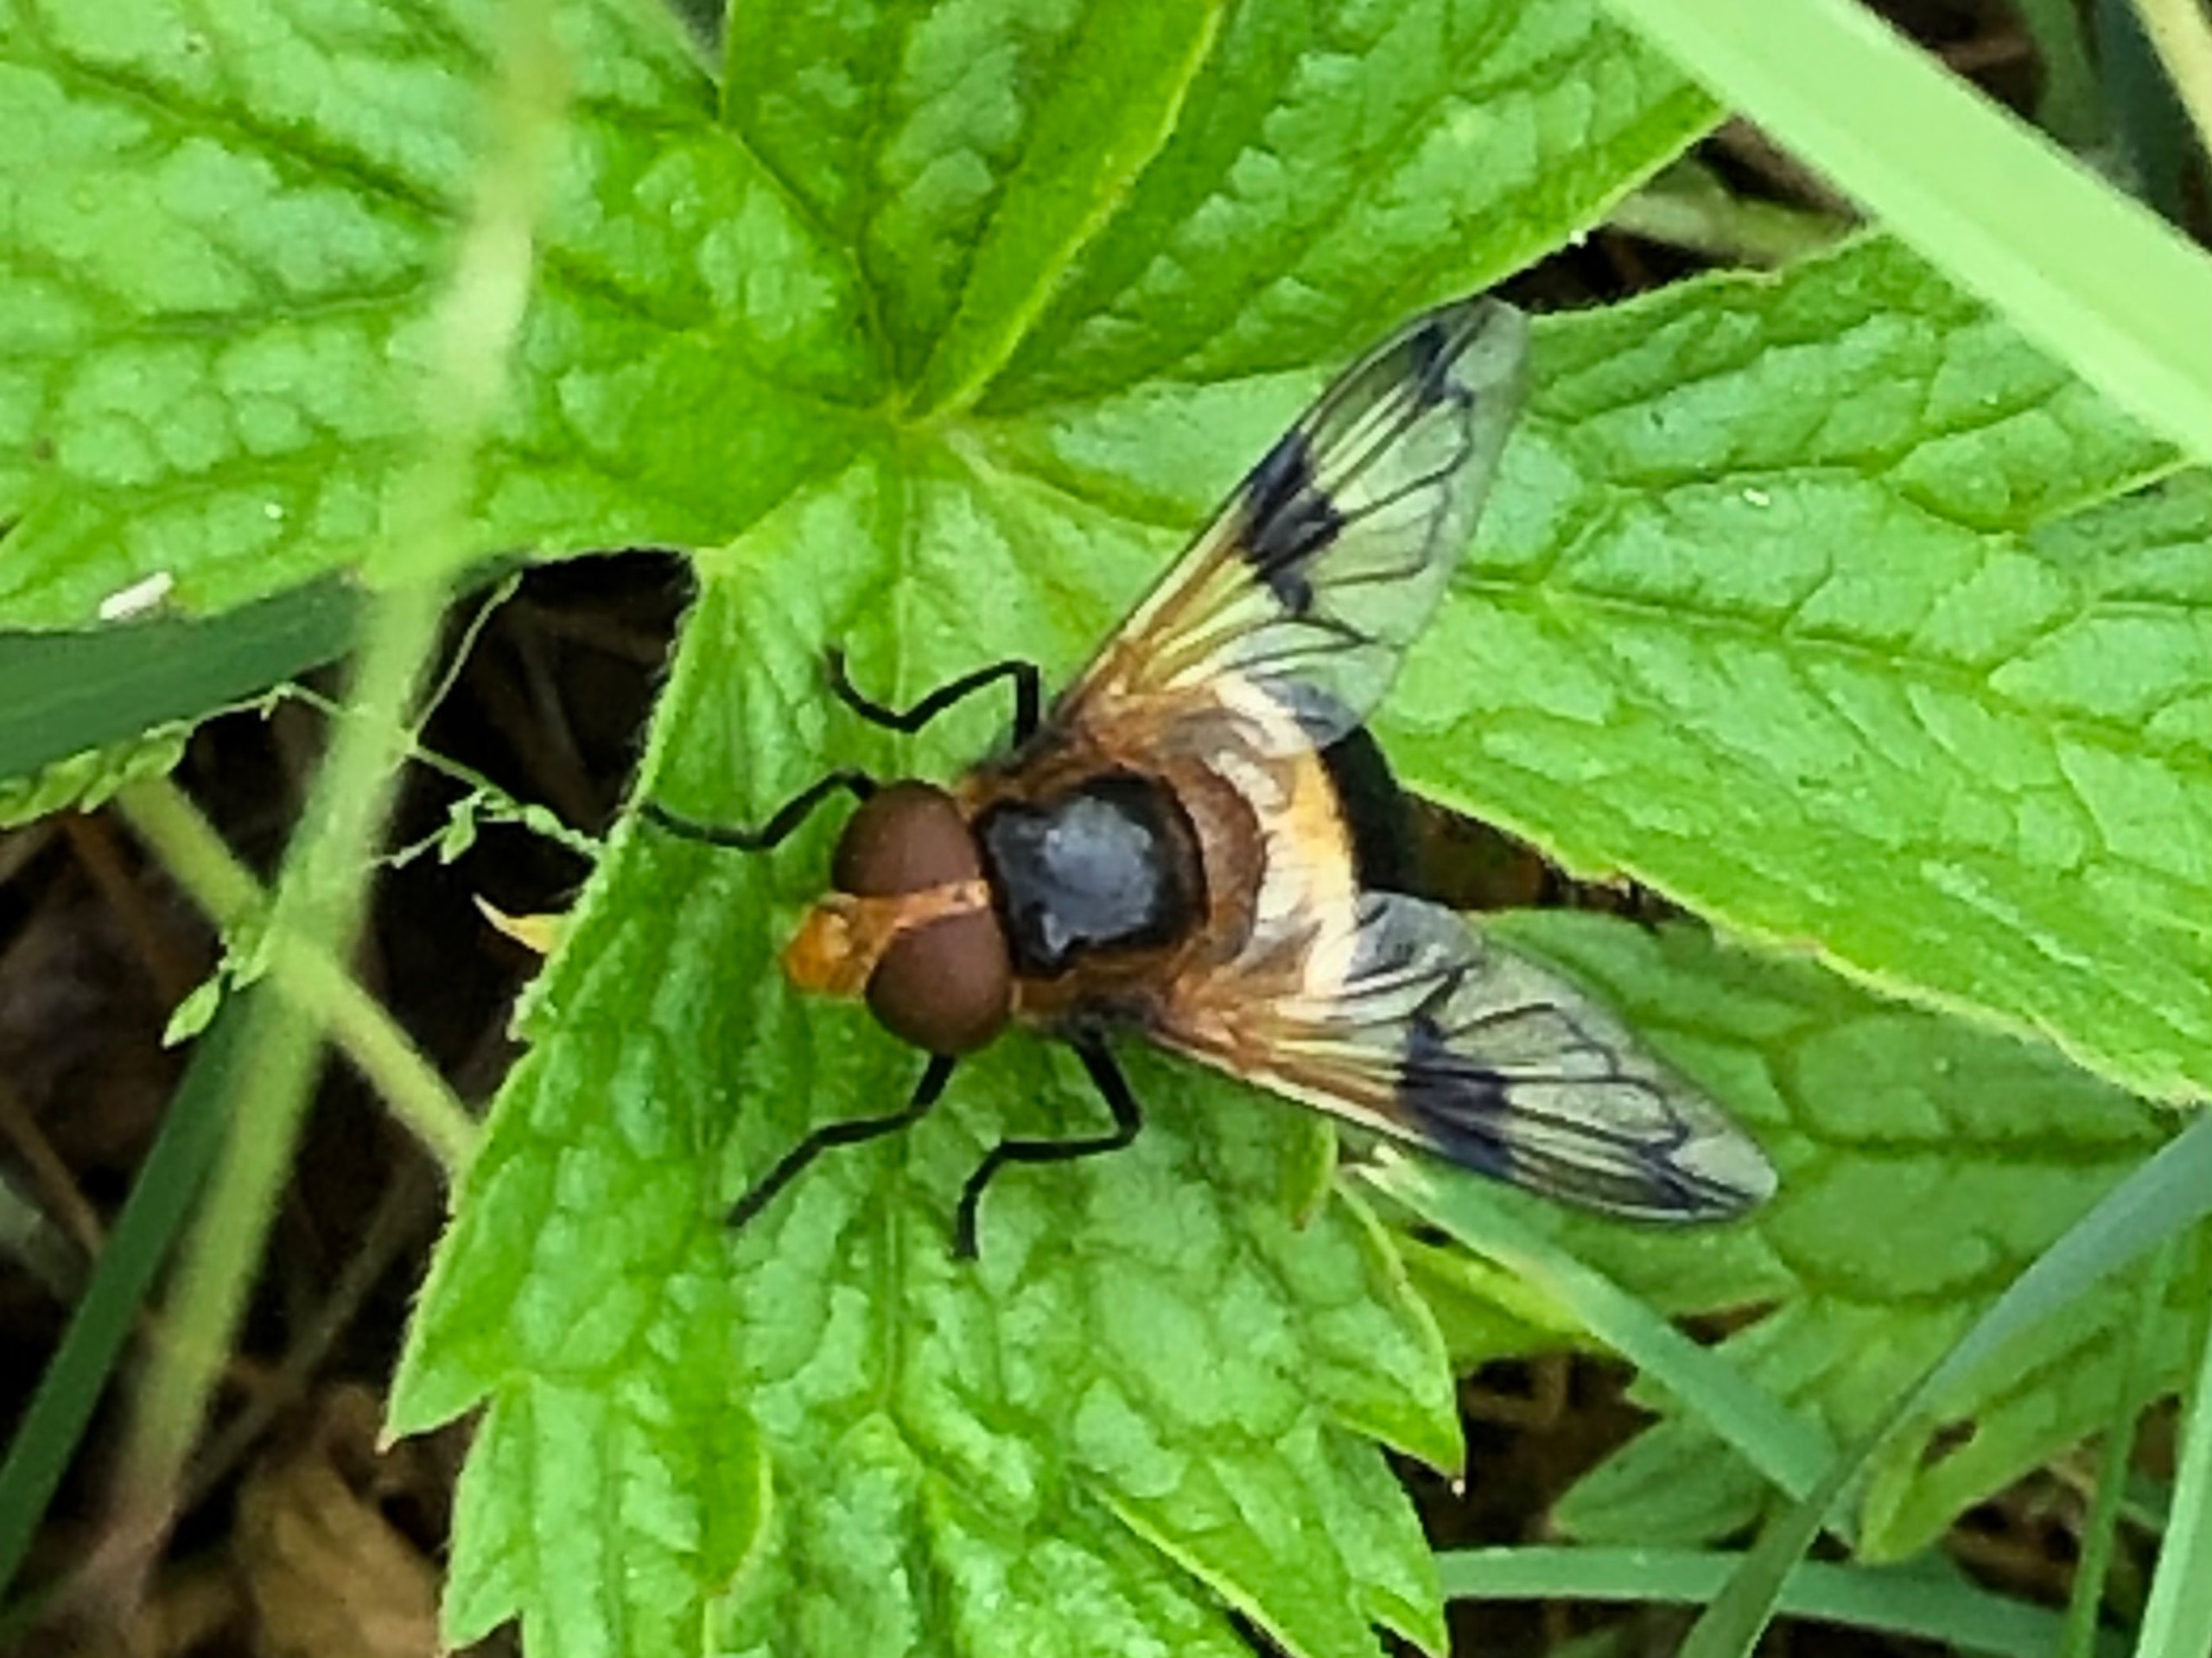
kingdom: Animalia
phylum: Arthropoda
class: Insecta
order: Diptera
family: Syrphidae
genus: Volucella
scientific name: Volucella pellucens
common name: Hvidbåndet humlesvirreflue
